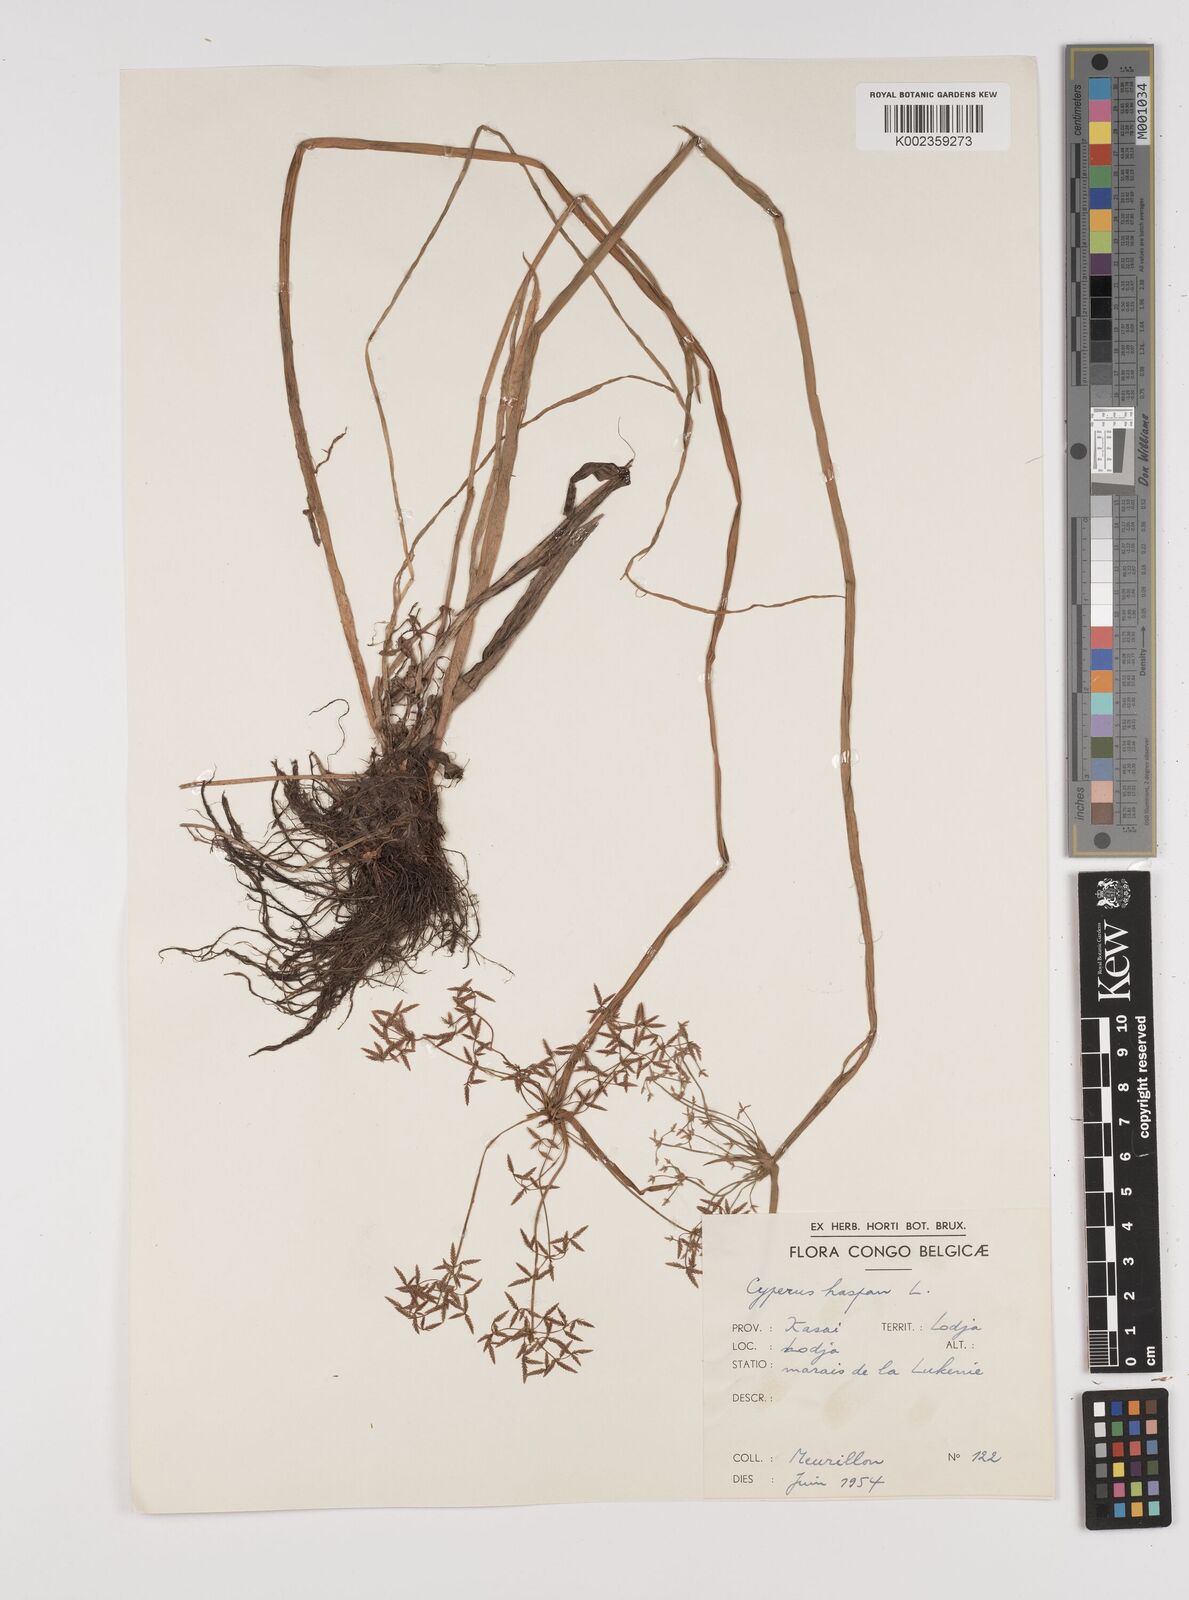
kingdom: Plantae
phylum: Tracheophyta
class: Liliopsida
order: Poales
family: Cyperaceae
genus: Cyperus
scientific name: Cyperus haspan
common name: Haspan flatsedge
